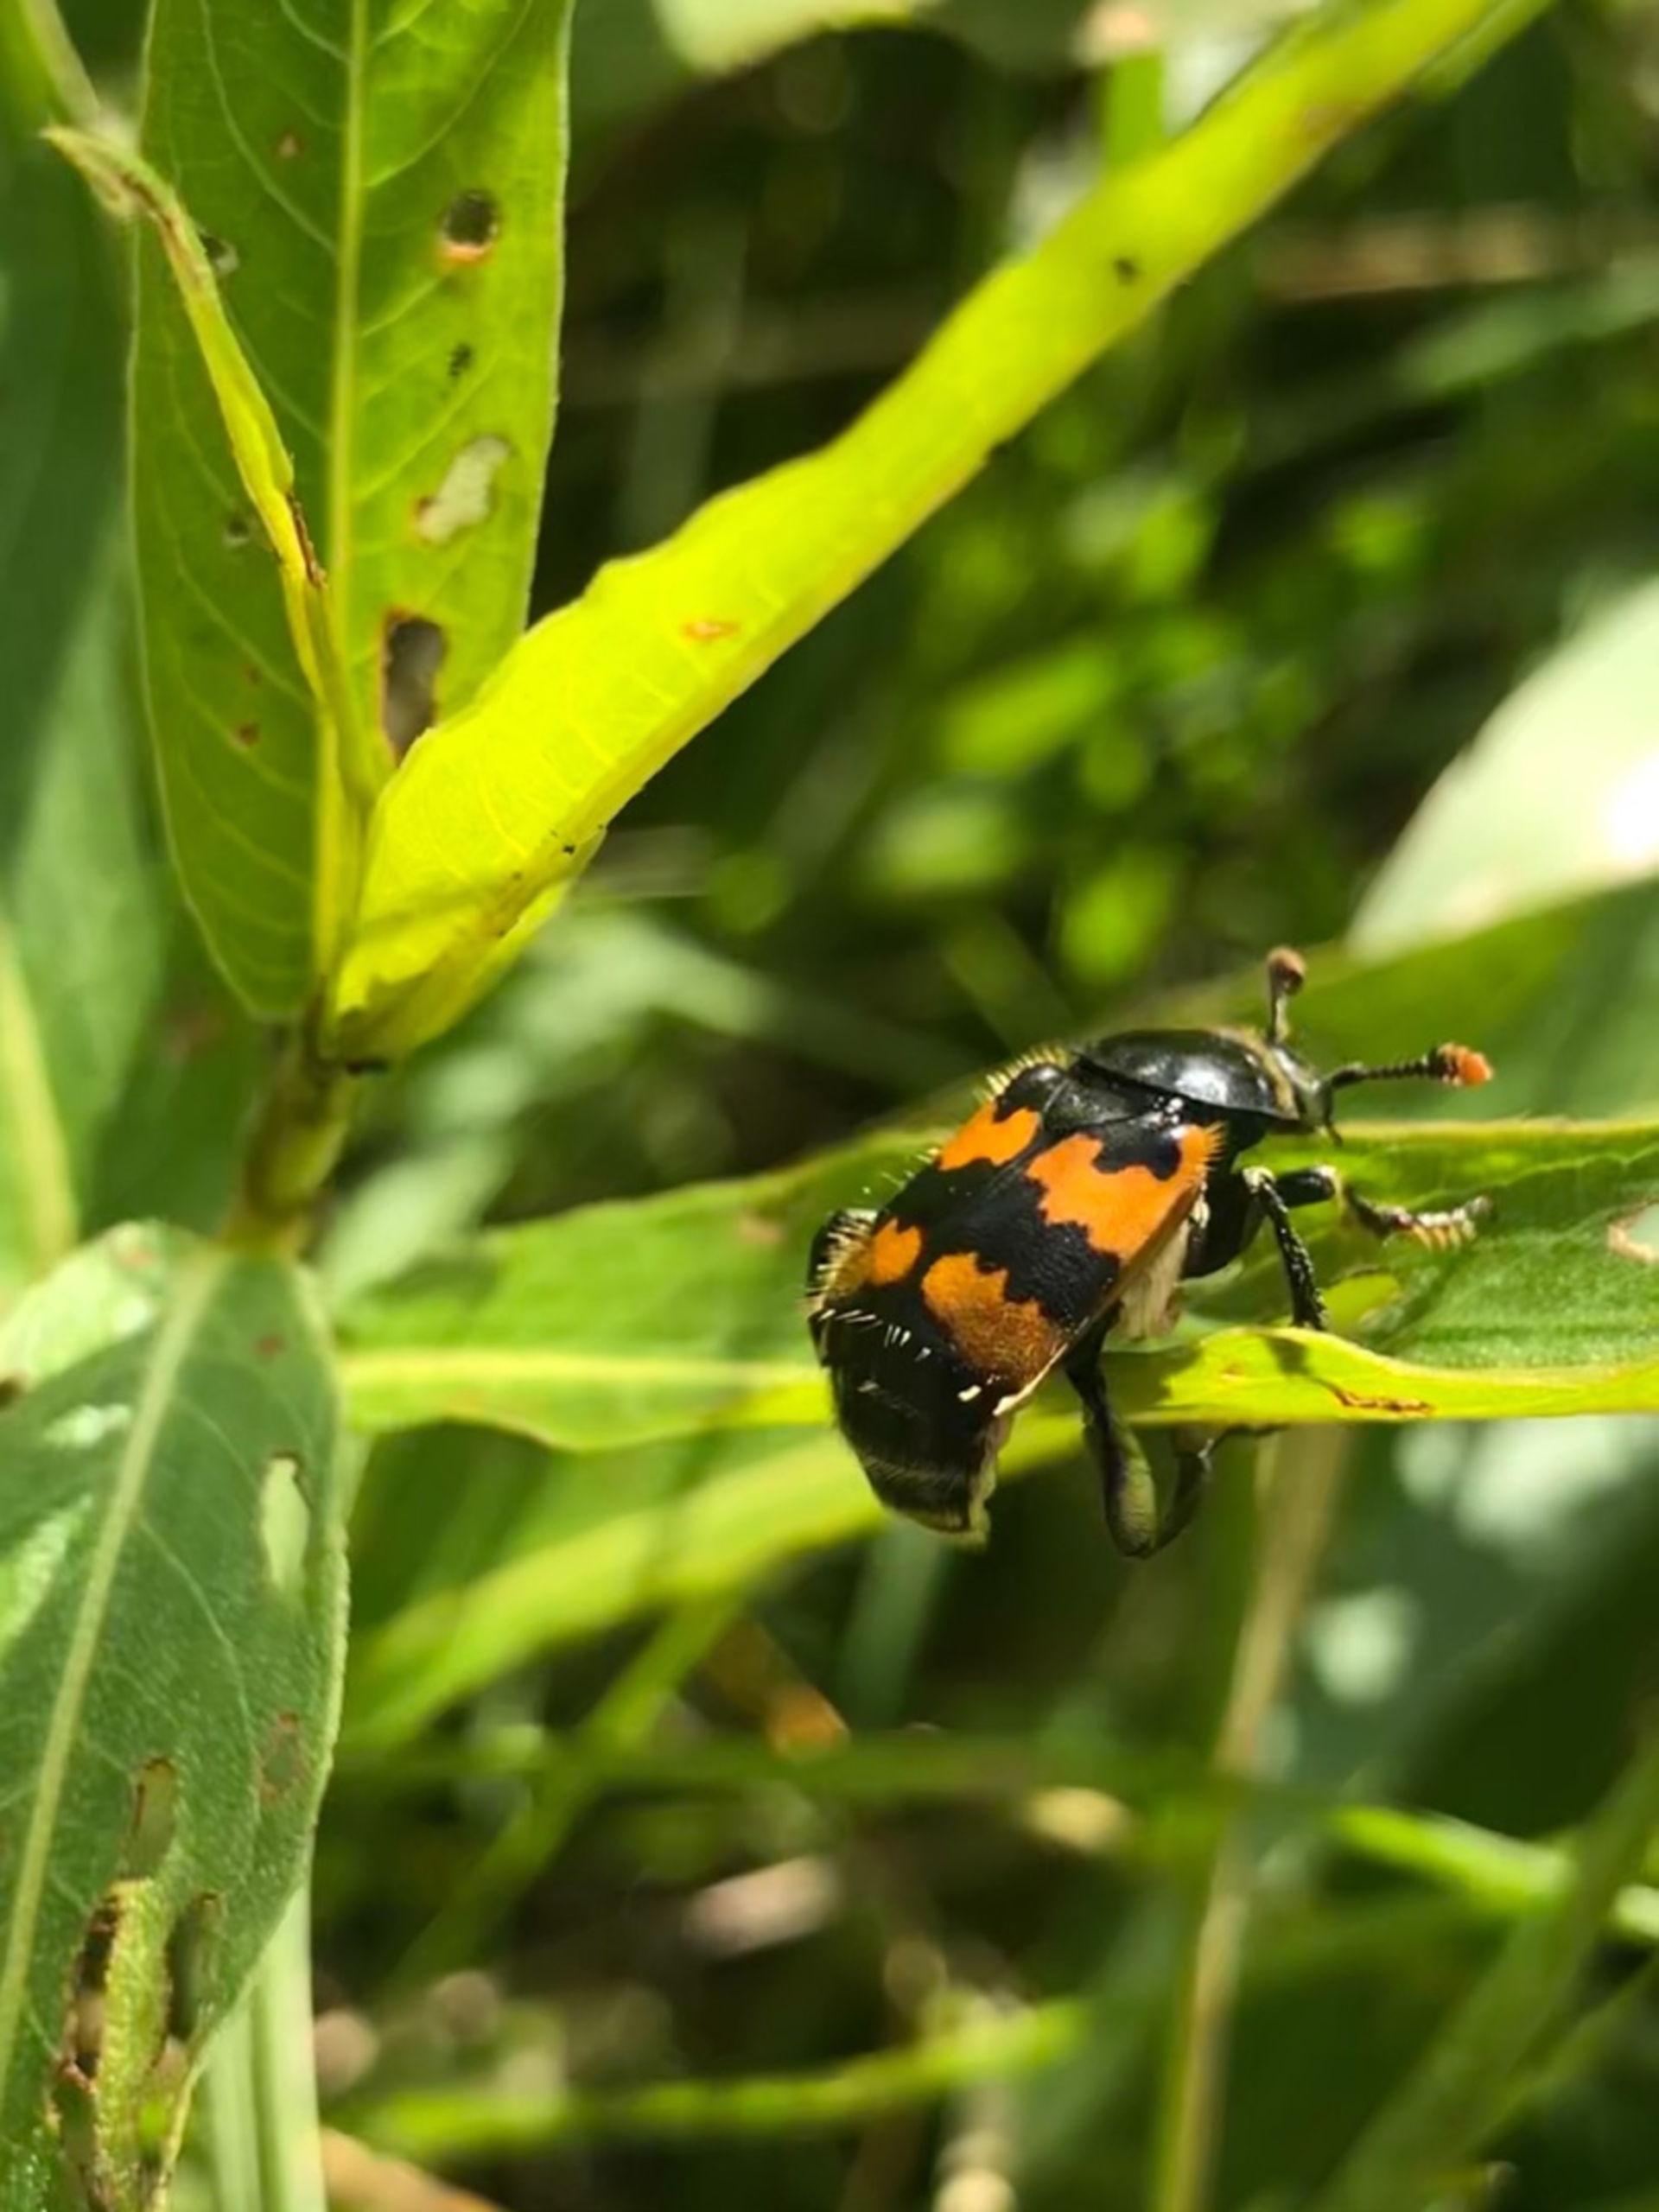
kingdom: Animalia
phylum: Arthropoda
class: Insecta
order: Coleoptera
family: Staphylinidae
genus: Nicrophorus
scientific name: Nicrophorus vespillo
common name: Krumbenet ådselgraver
